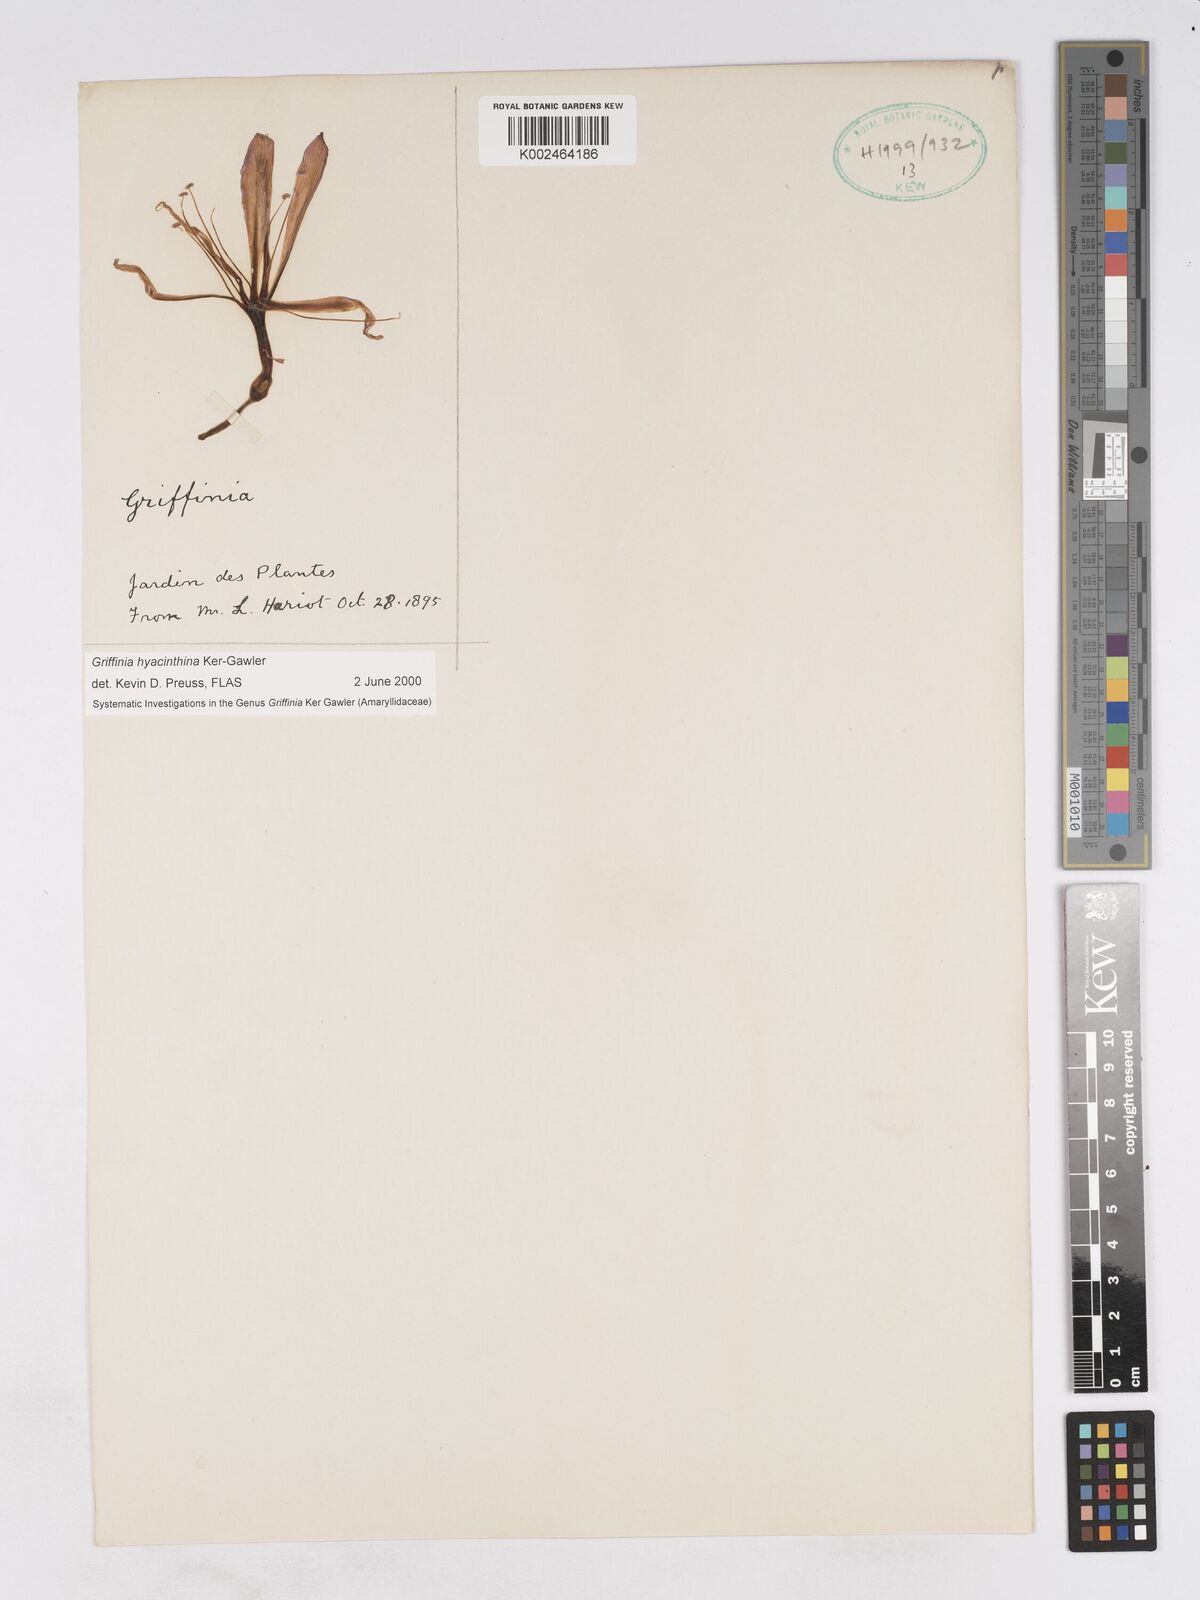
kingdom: Plantae
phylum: Tracheophyta
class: Liliopsida
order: Asparagales
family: Amaryllidaceae
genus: Griffinia
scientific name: Griffinia hyacinthina
